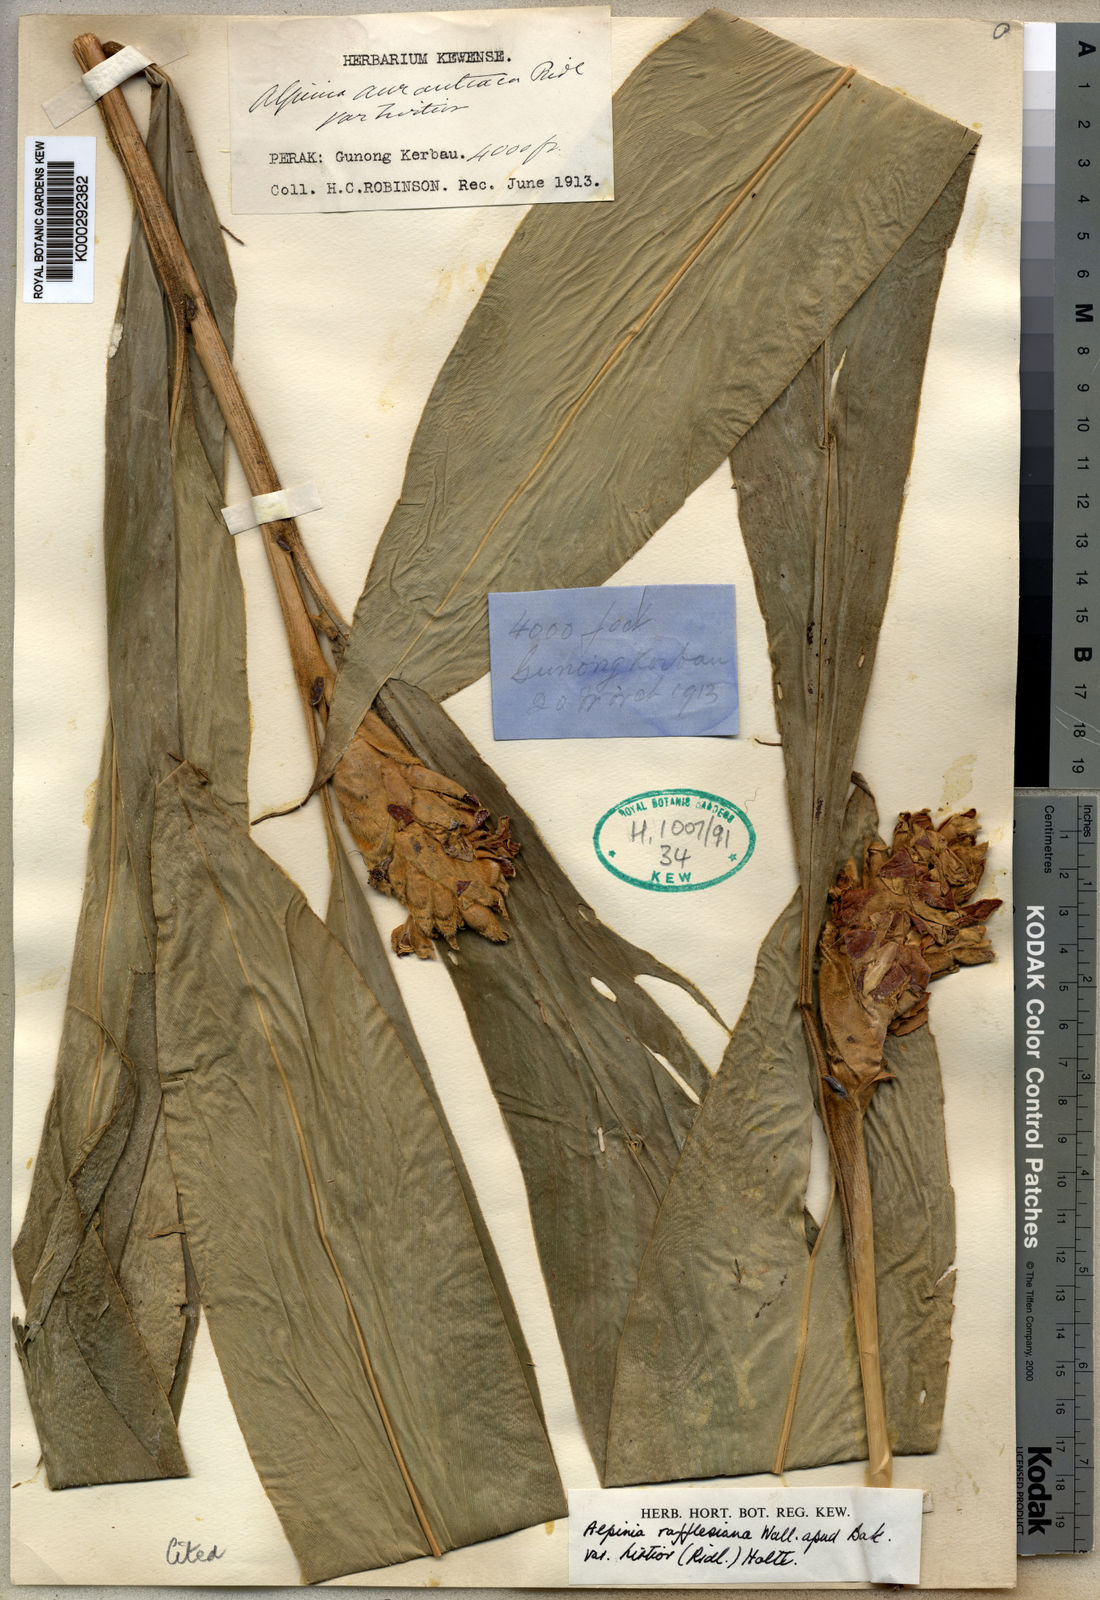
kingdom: Plantae
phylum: Tracheophyta
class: Liliopsida
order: Zingiberales
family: Zingiberaceae
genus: Alpinia
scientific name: Alpinia rafflesiana
